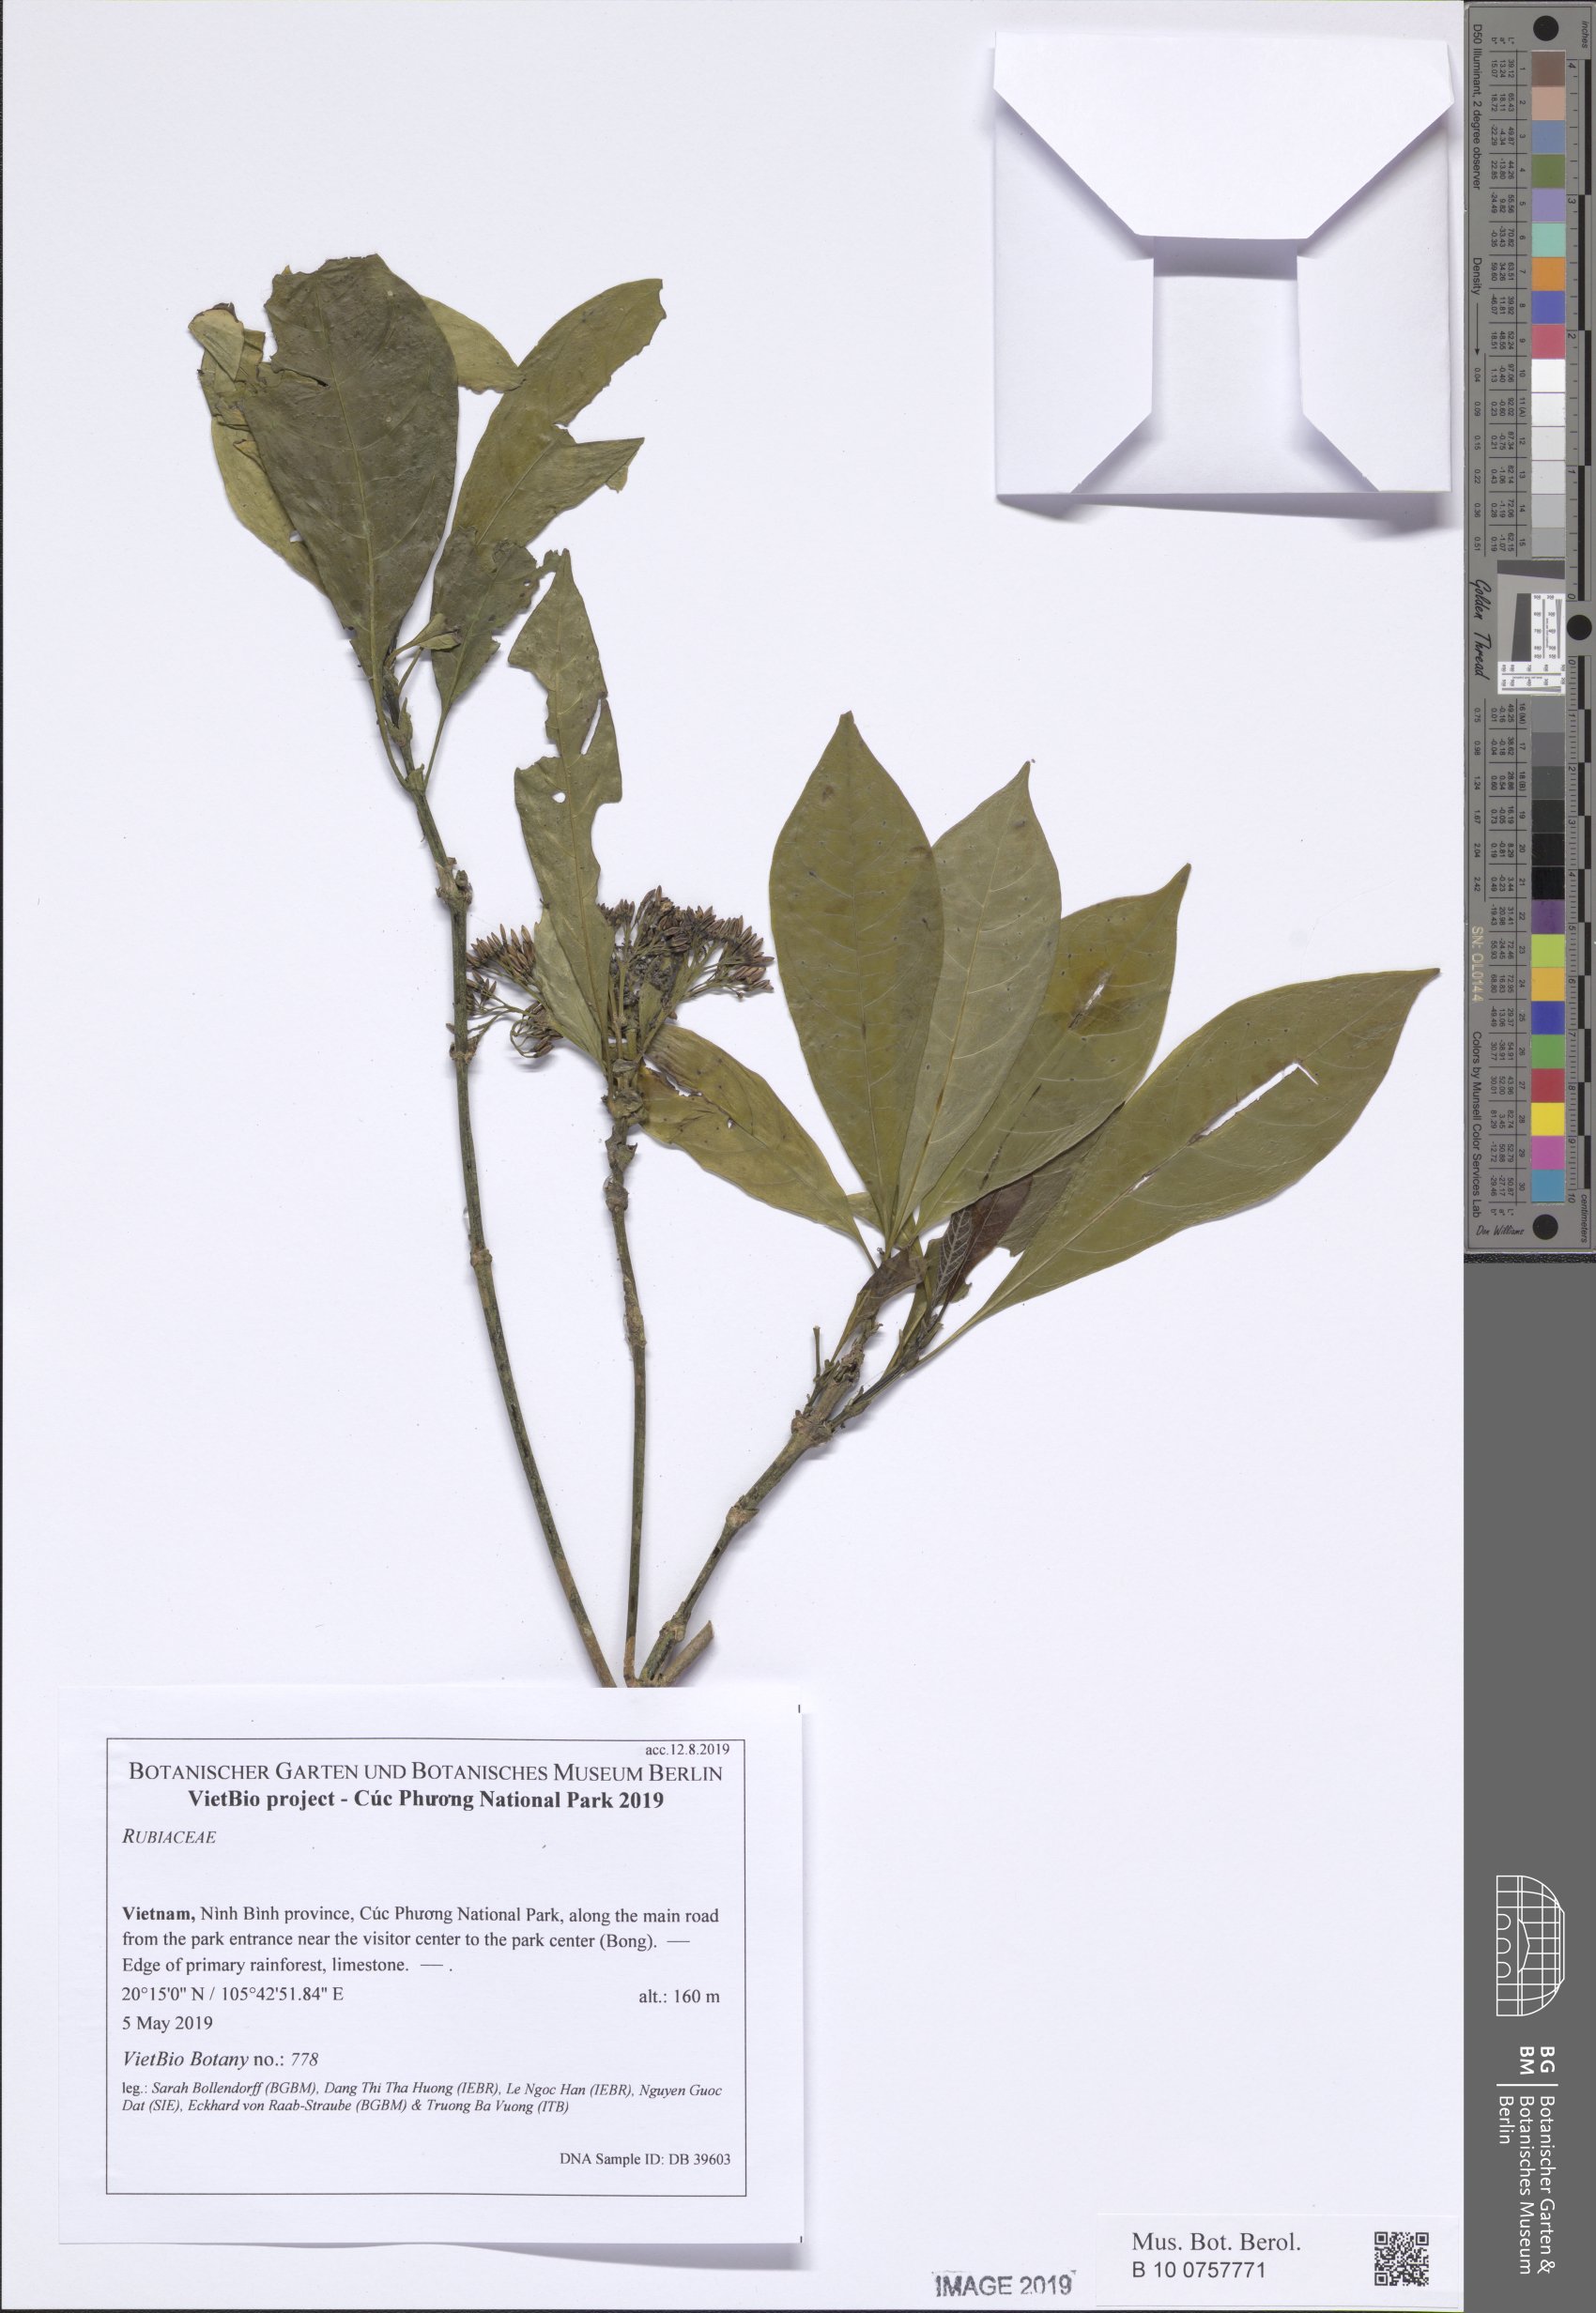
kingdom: Plantae
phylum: Tracheophyta
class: Magnoliopsida
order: Gentianales
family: Rubiaceae
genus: Pavetta
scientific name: Pavetta
